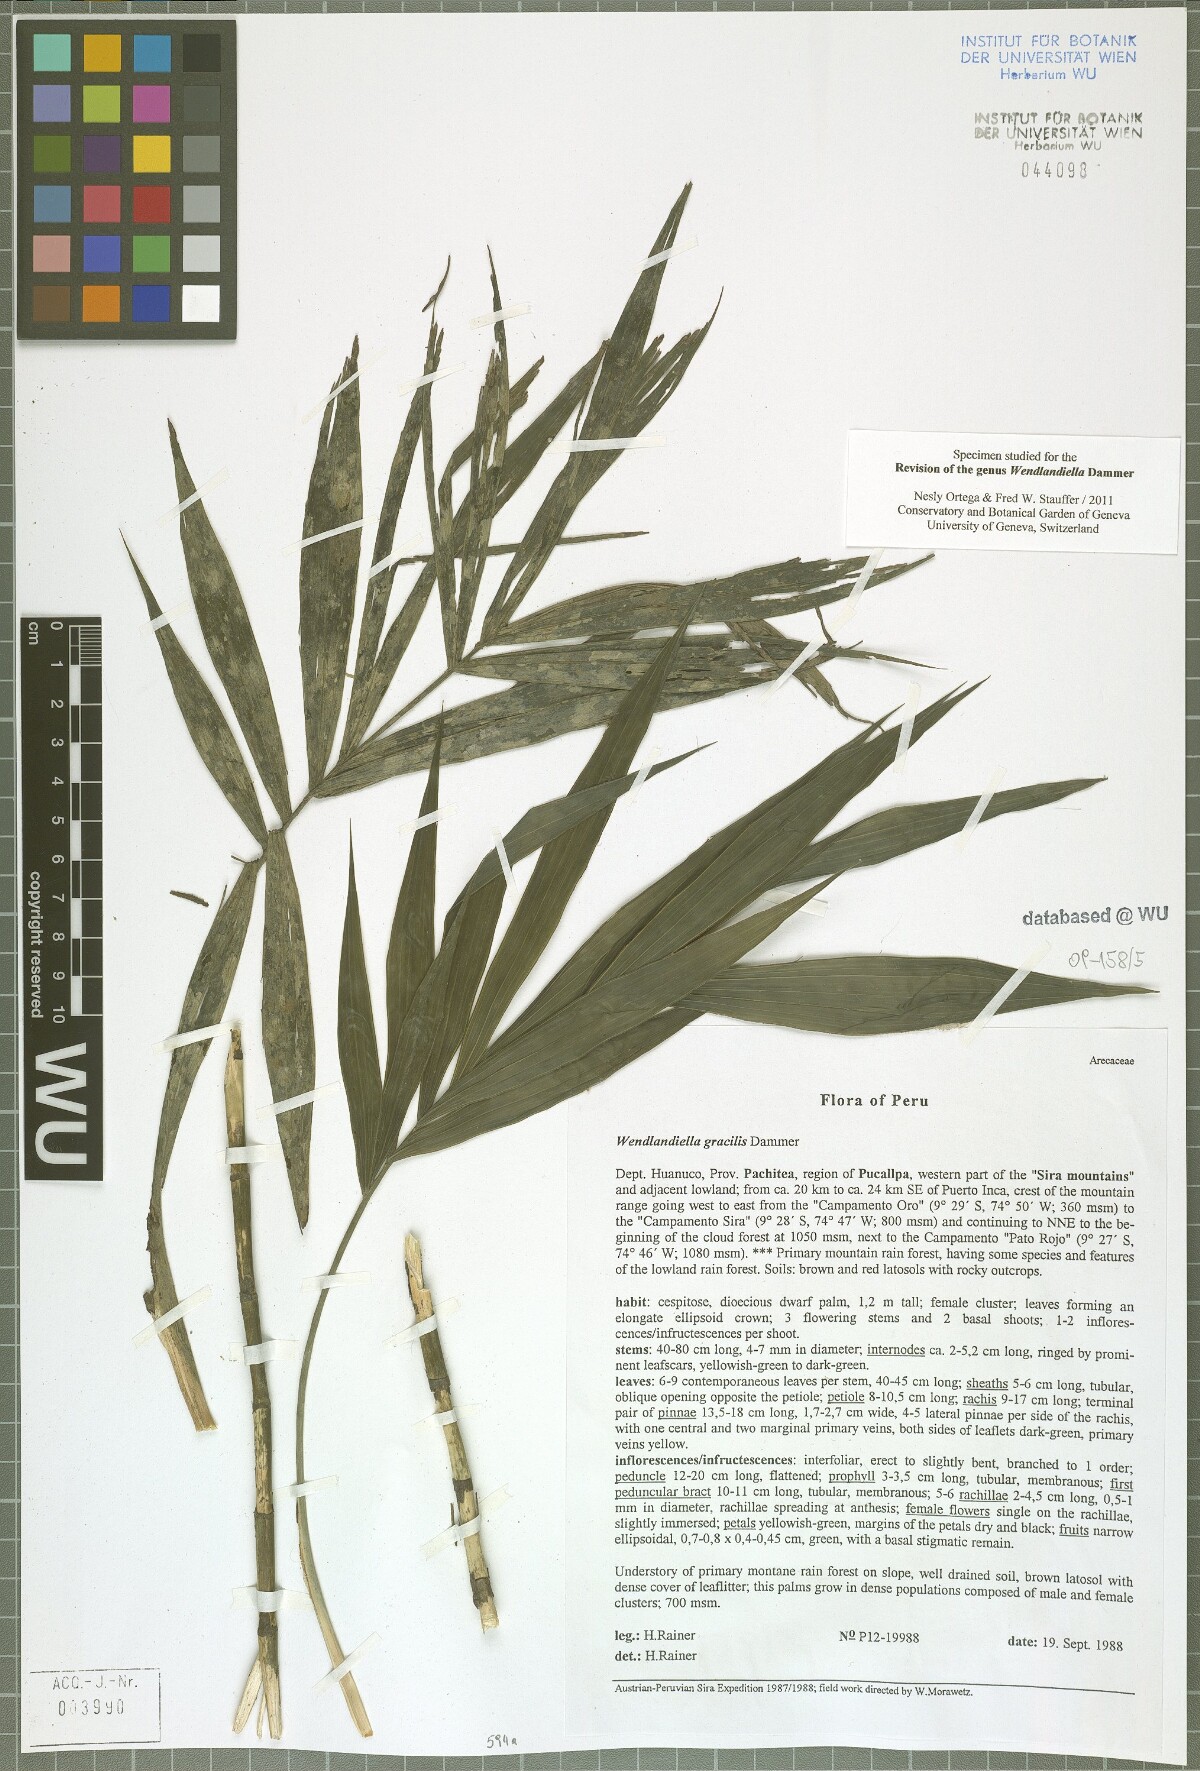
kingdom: Plantae
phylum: Tracheophyta
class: Liliopsida
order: Arecales
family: Arecaceae
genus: Wendlandiella
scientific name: Wendlandiella gracilis
